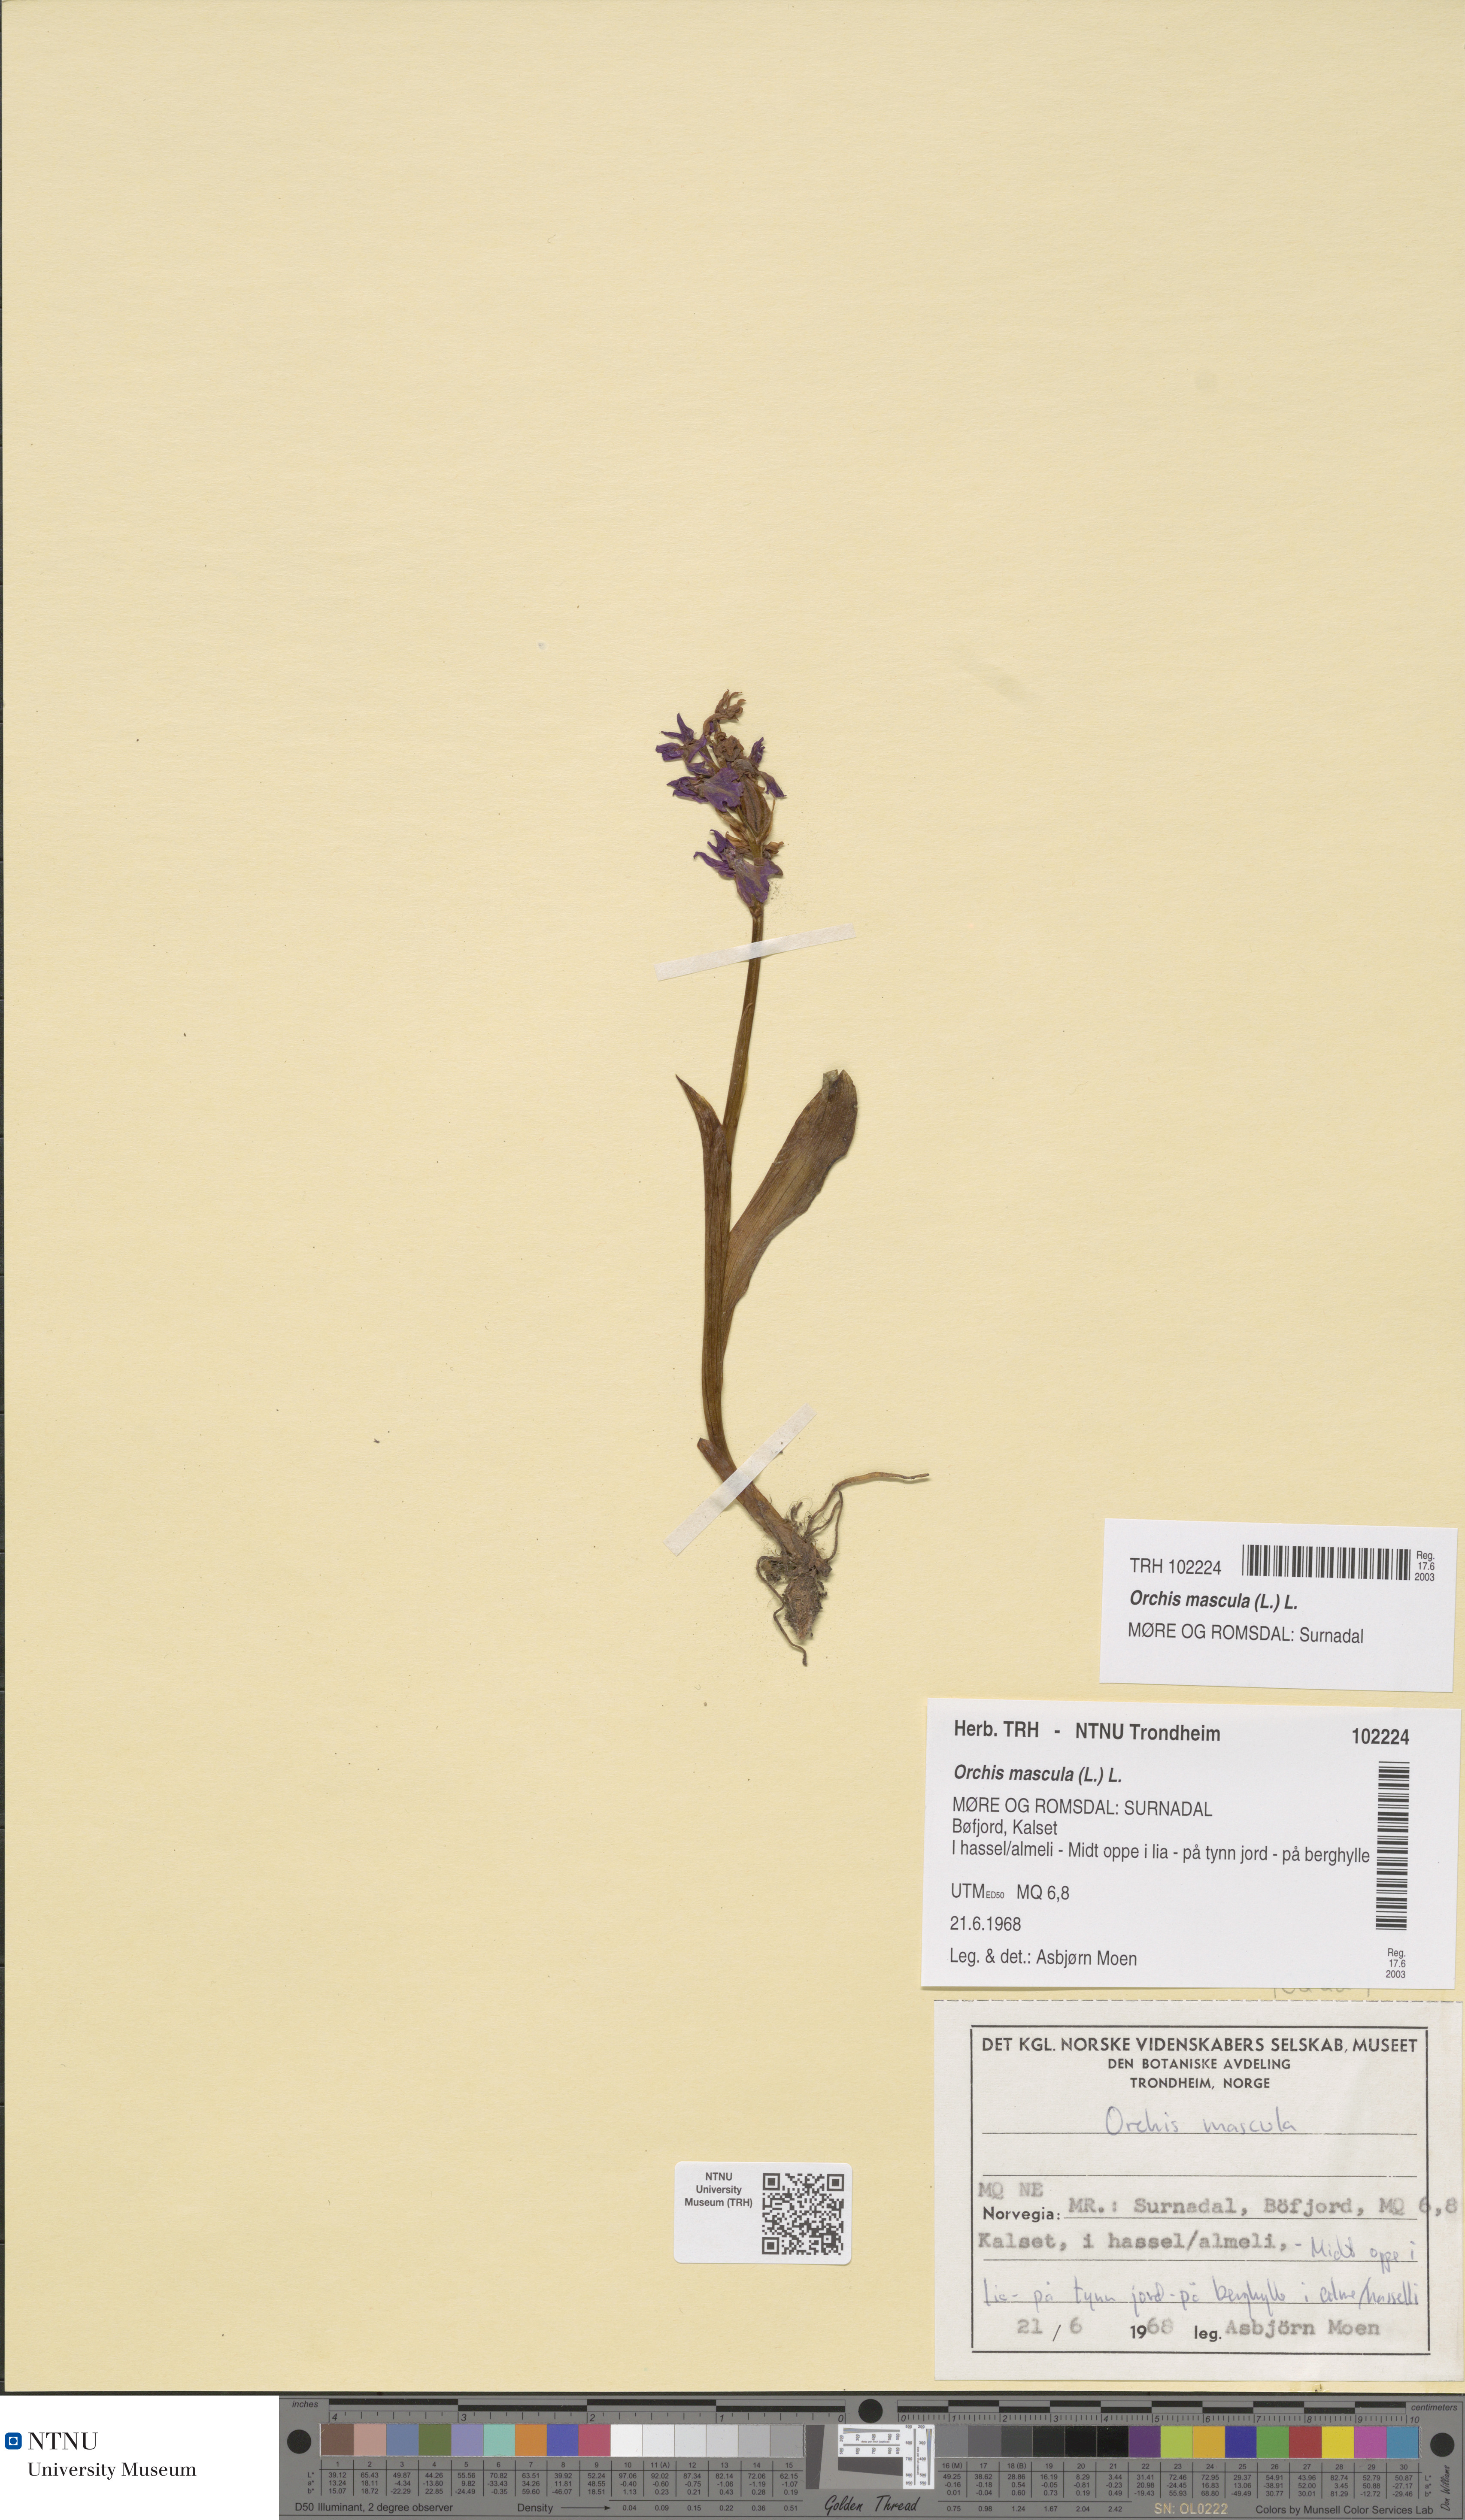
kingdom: Plantae
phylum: Tracheophyta
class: Liliopsida
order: Asparagales
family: Orchidaceae
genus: Orchis
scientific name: Orchis mascula
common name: Early-purple orchid
